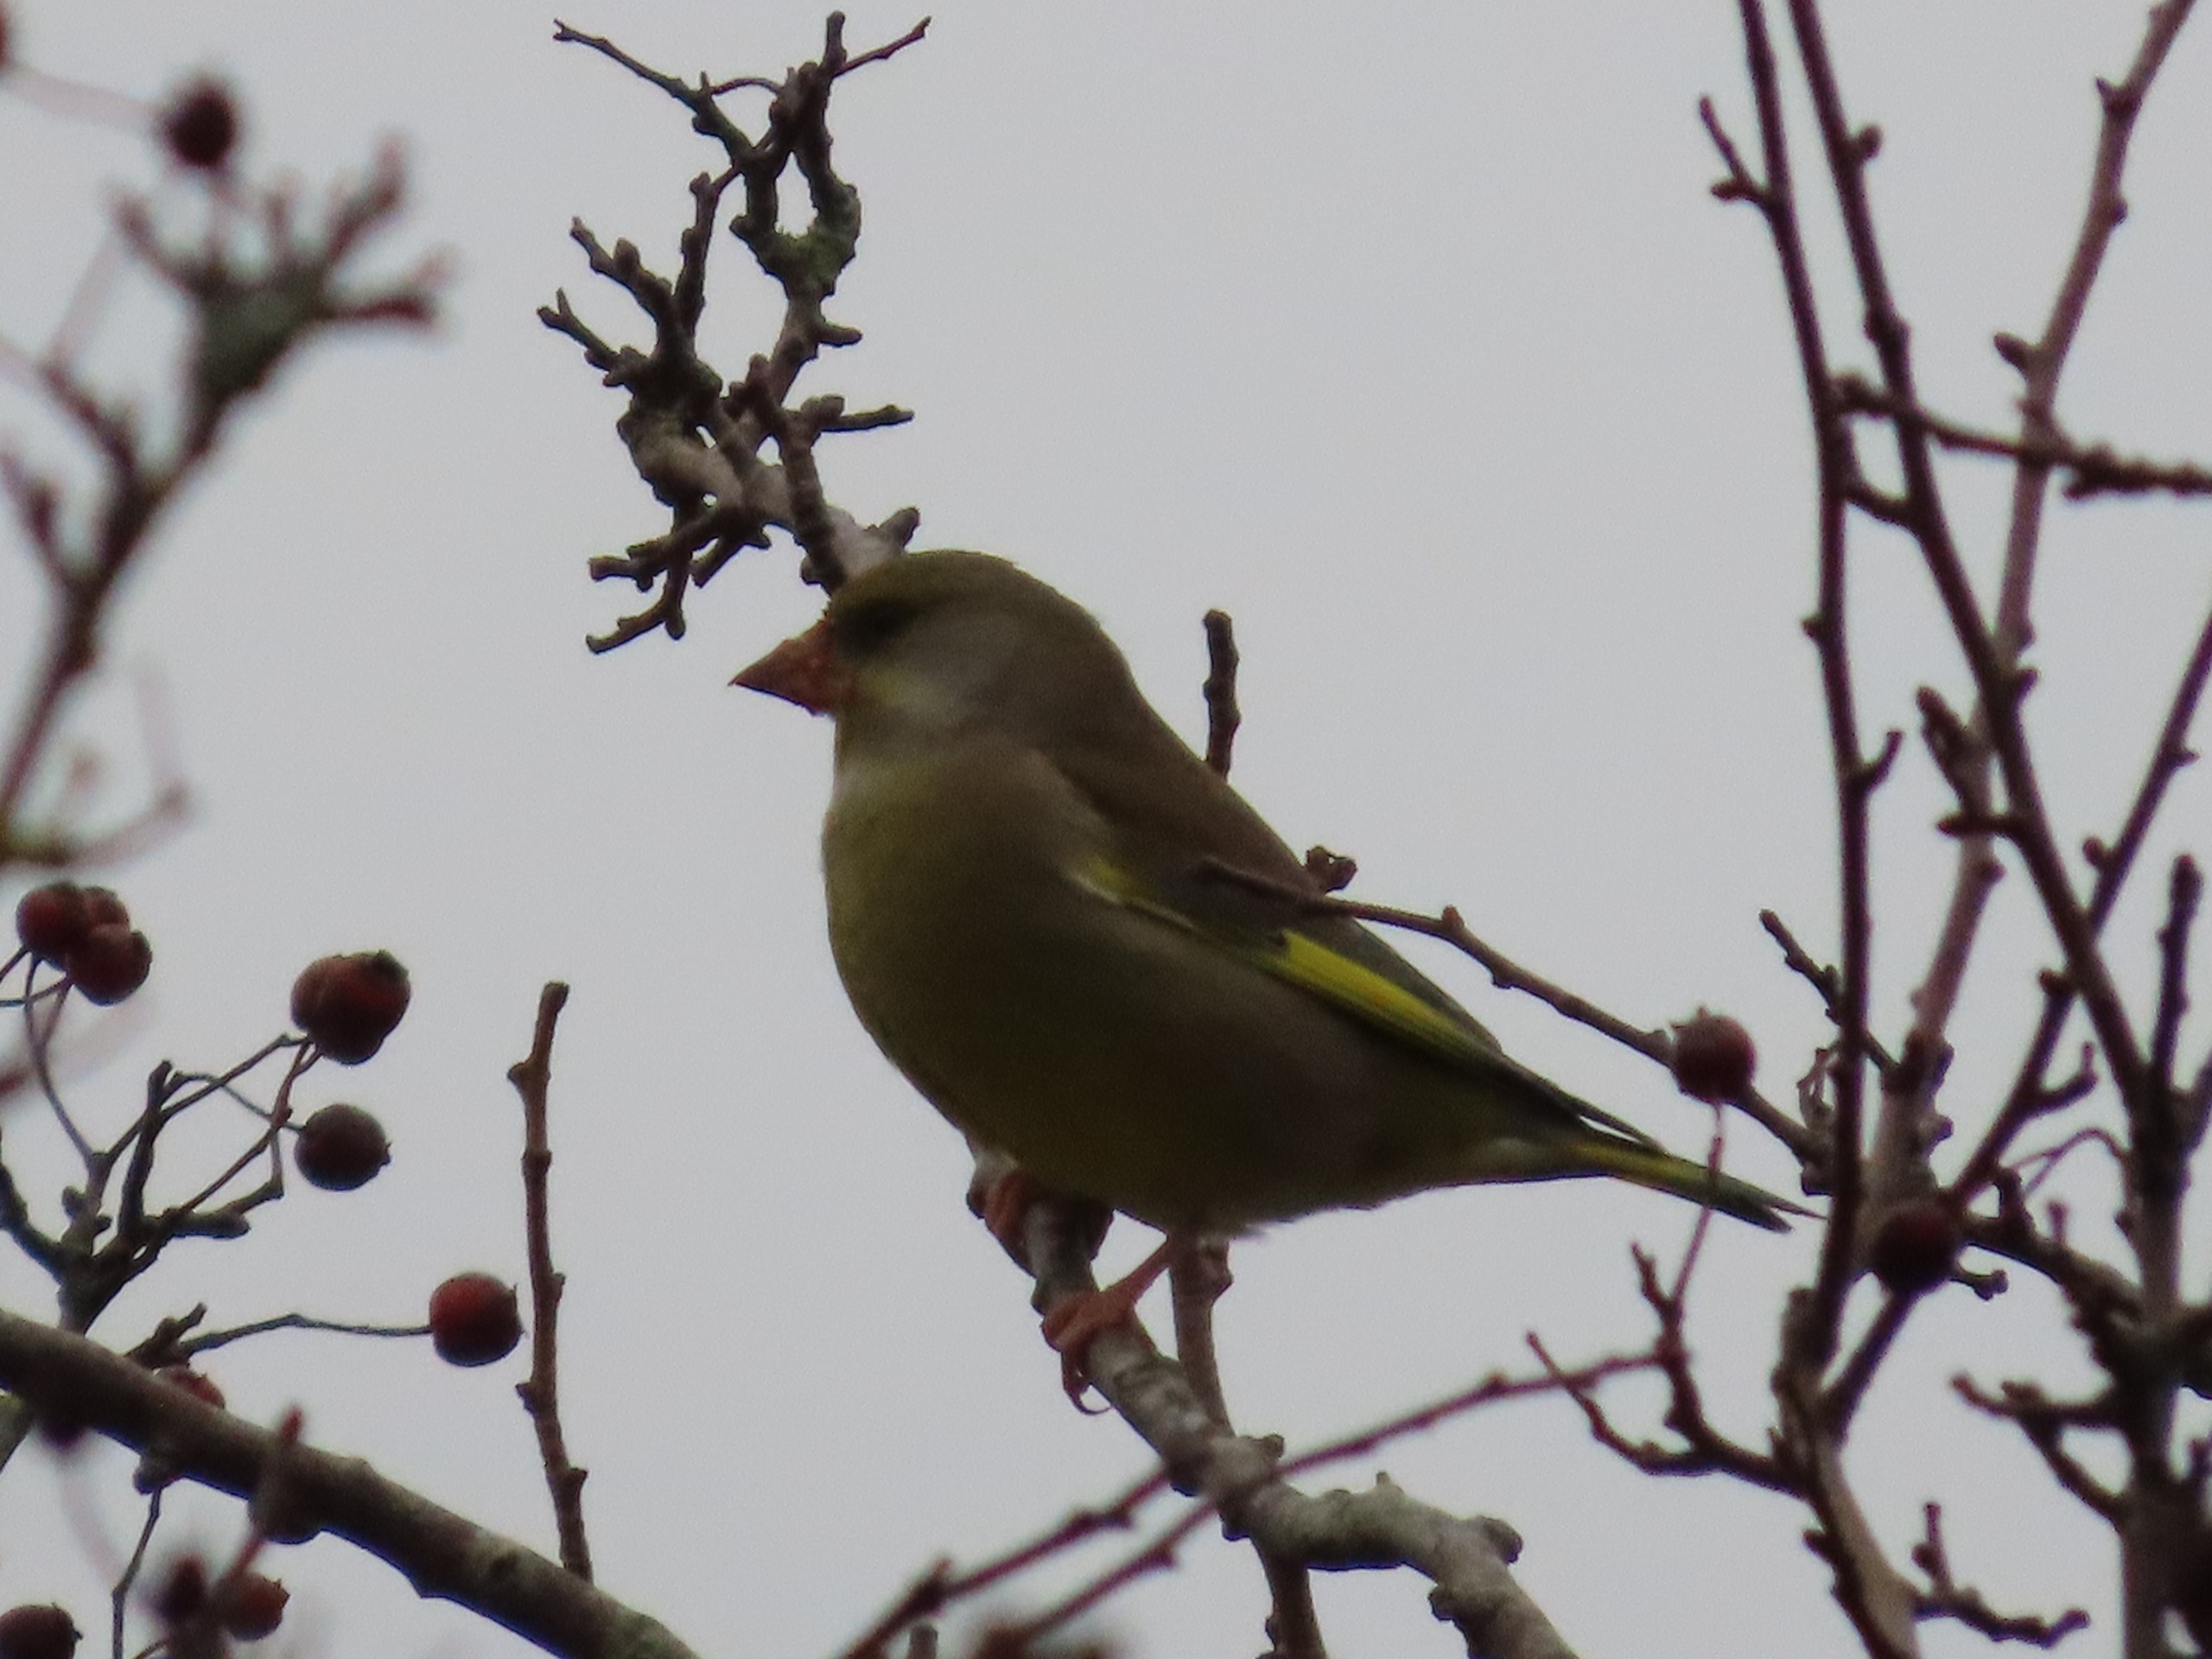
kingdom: Plantae
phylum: Tracheophyta
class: Liliopsida
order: Poales
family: Poaceae
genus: Chloris
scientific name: Chloris chloris
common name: Grønirisk
